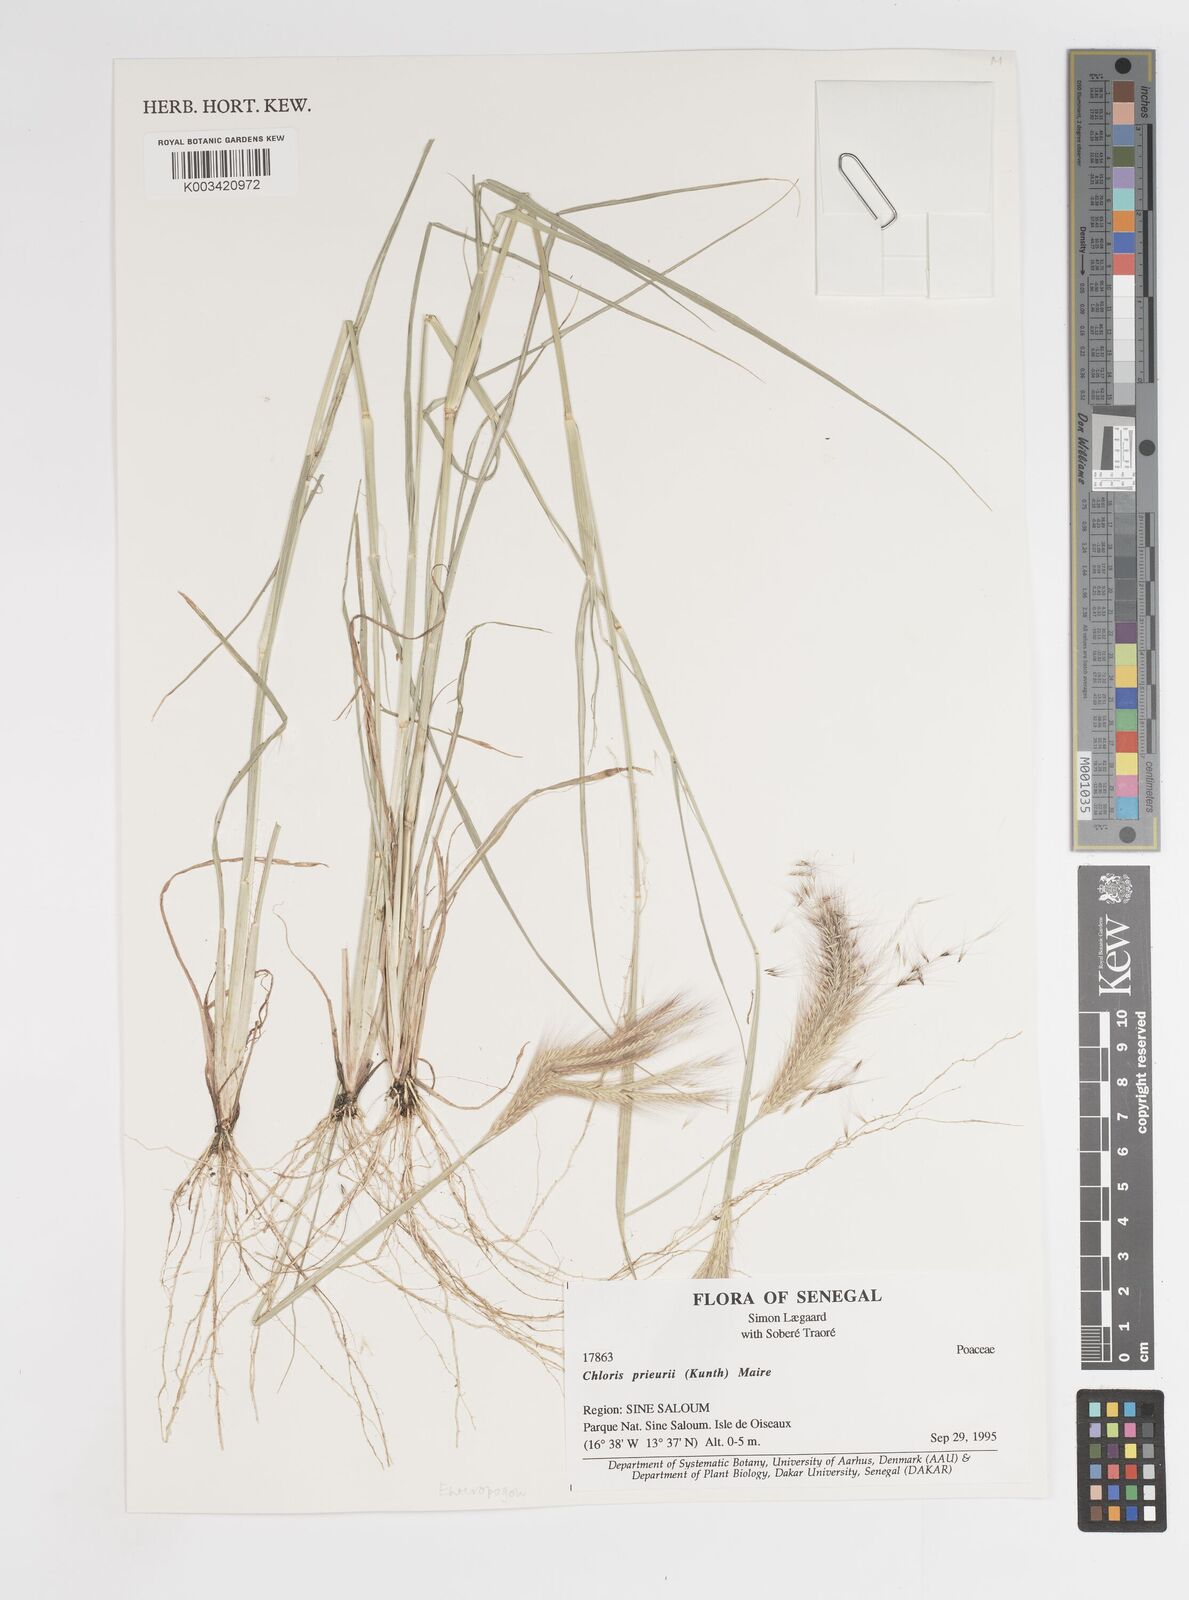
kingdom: Plantae
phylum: Tracheophyta
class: Liliopsida
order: Poales
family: Poaceae
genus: Enteropogon
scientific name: Enteropogon prieurii
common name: Prieur's umbrellagrass
